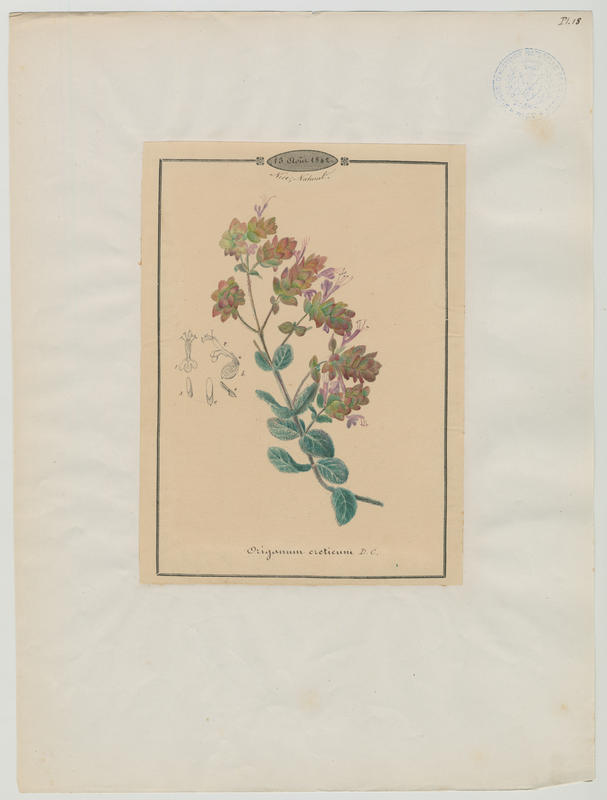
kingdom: Plantae
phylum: Tracheophyta
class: Magnoliopsida
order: Lamiales
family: Lamiaceae
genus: Origanum
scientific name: Origanum dictamnus
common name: Cretan dittany
